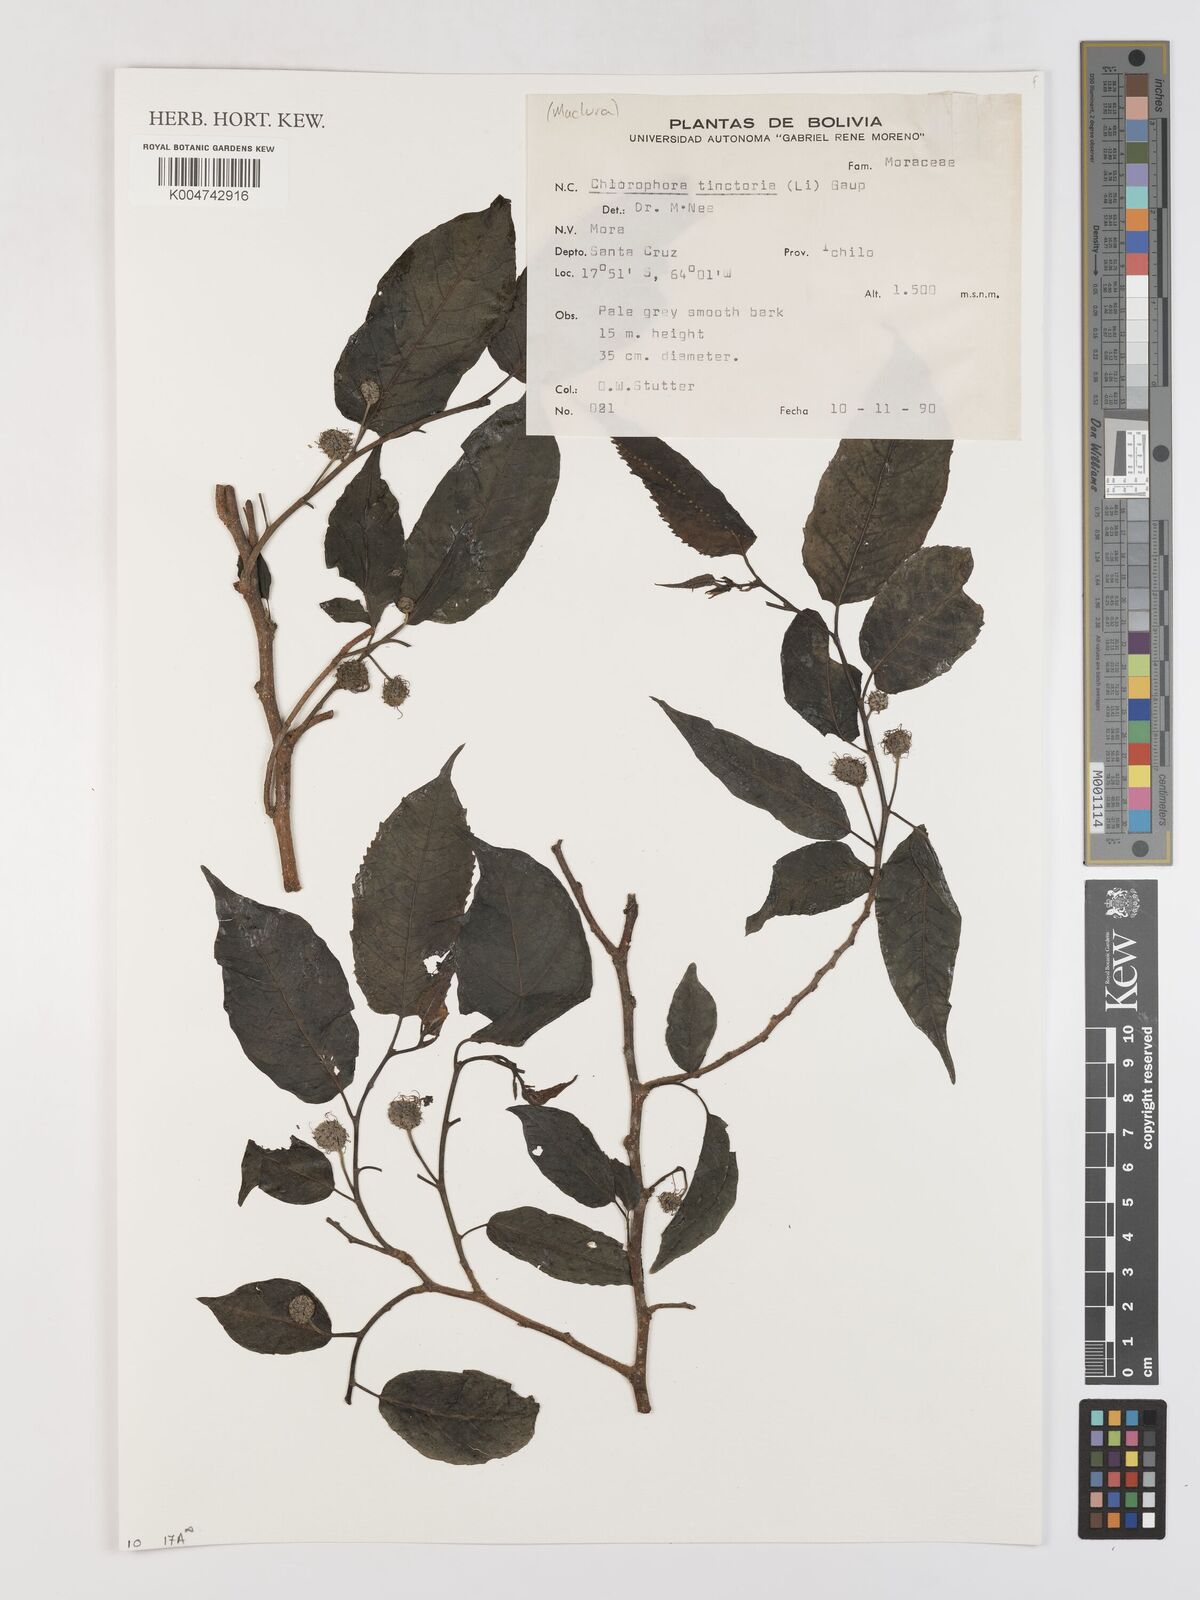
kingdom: Plantae
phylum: Tracheophyta
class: Magnoliopsida
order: Rosales
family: Moraceae
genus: Maclura
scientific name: Maclura tinctoria
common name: Old fustic
